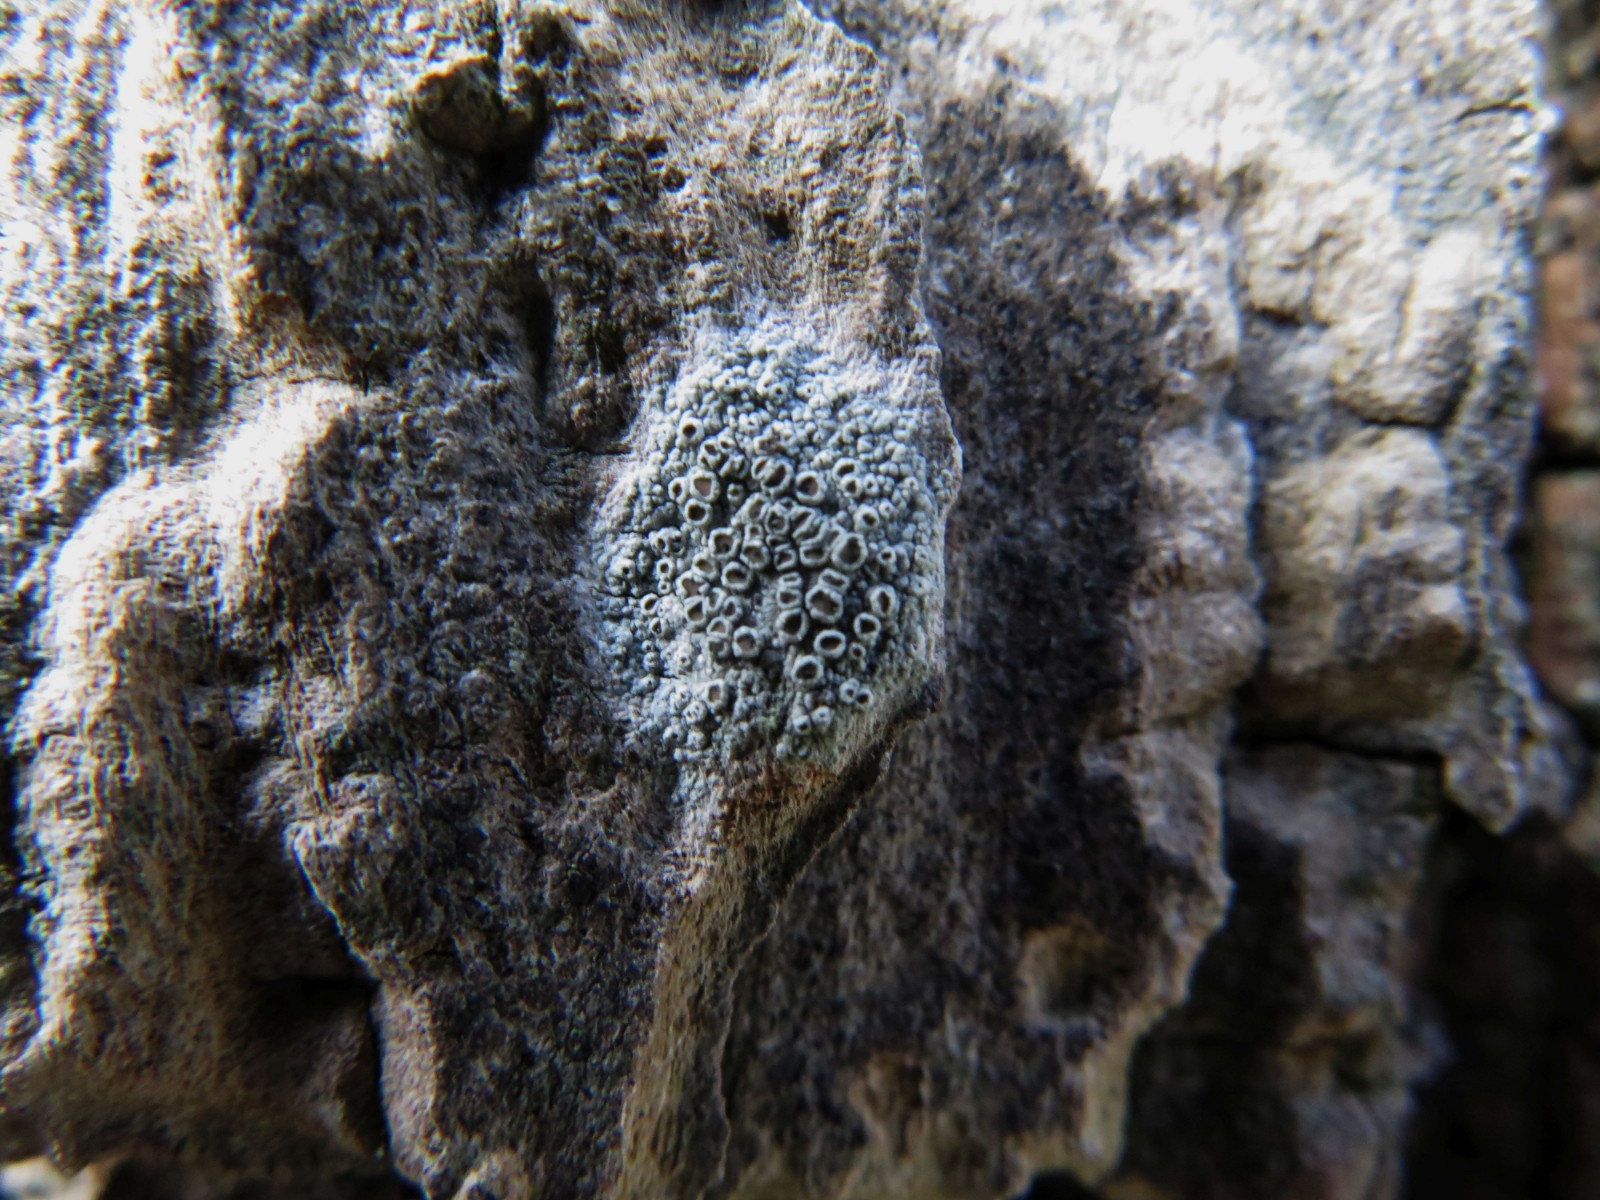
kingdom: Fungi
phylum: Ascomycota
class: Lecanoromycetes
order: Lecanorales
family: Lecanoraceae
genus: Lecanora
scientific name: Lecanora chlarotera
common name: brun kantskivelav
